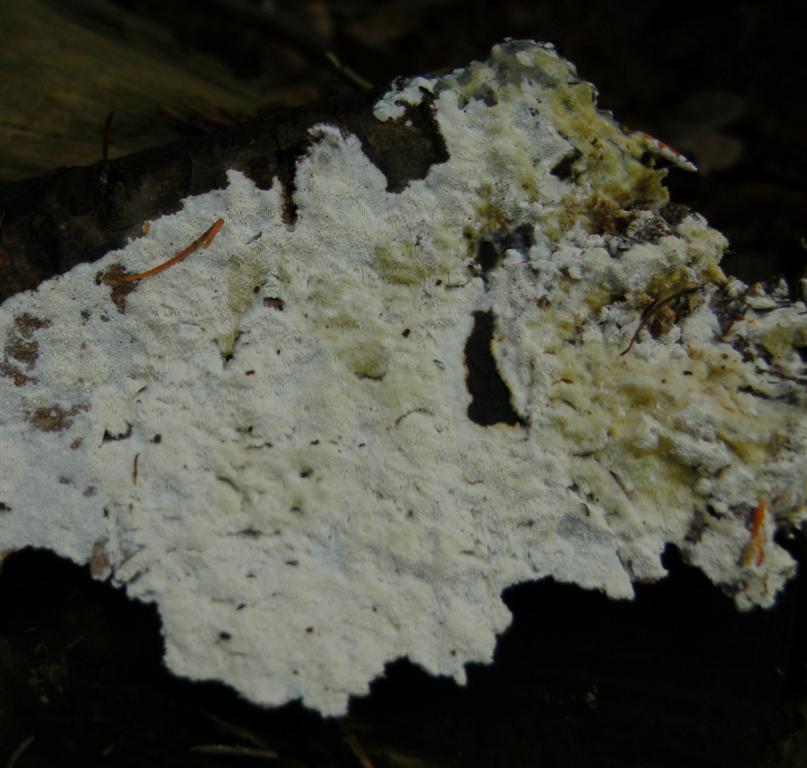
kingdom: Fungi
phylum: Basidiomycota
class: Agaricomycetes
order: Polyporales
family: Gelatoporiaceae
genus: Cinereomyces
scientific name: Cinereomyces lindbladii
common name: almindelig gråporesvamp
